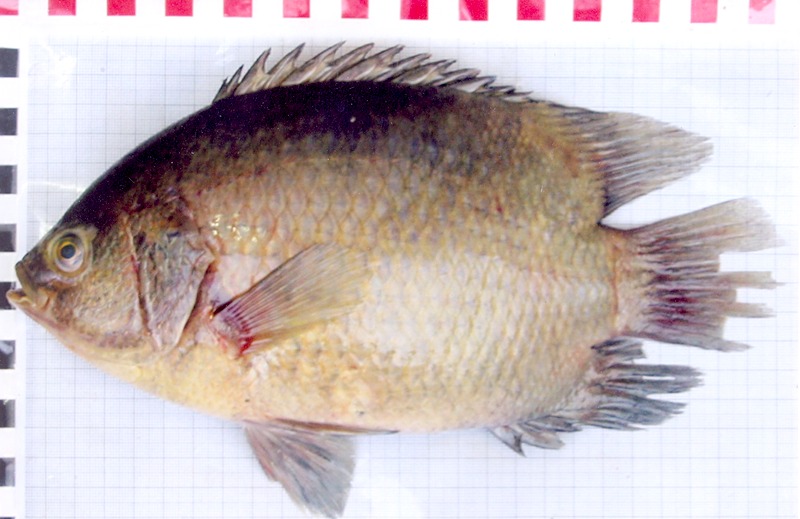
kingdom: Animalia
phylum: Chordata
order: Perciformes
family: Pristolepididae
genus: Pristolepis
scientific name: Pristolepis fasciata
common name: Malayan leaffish
